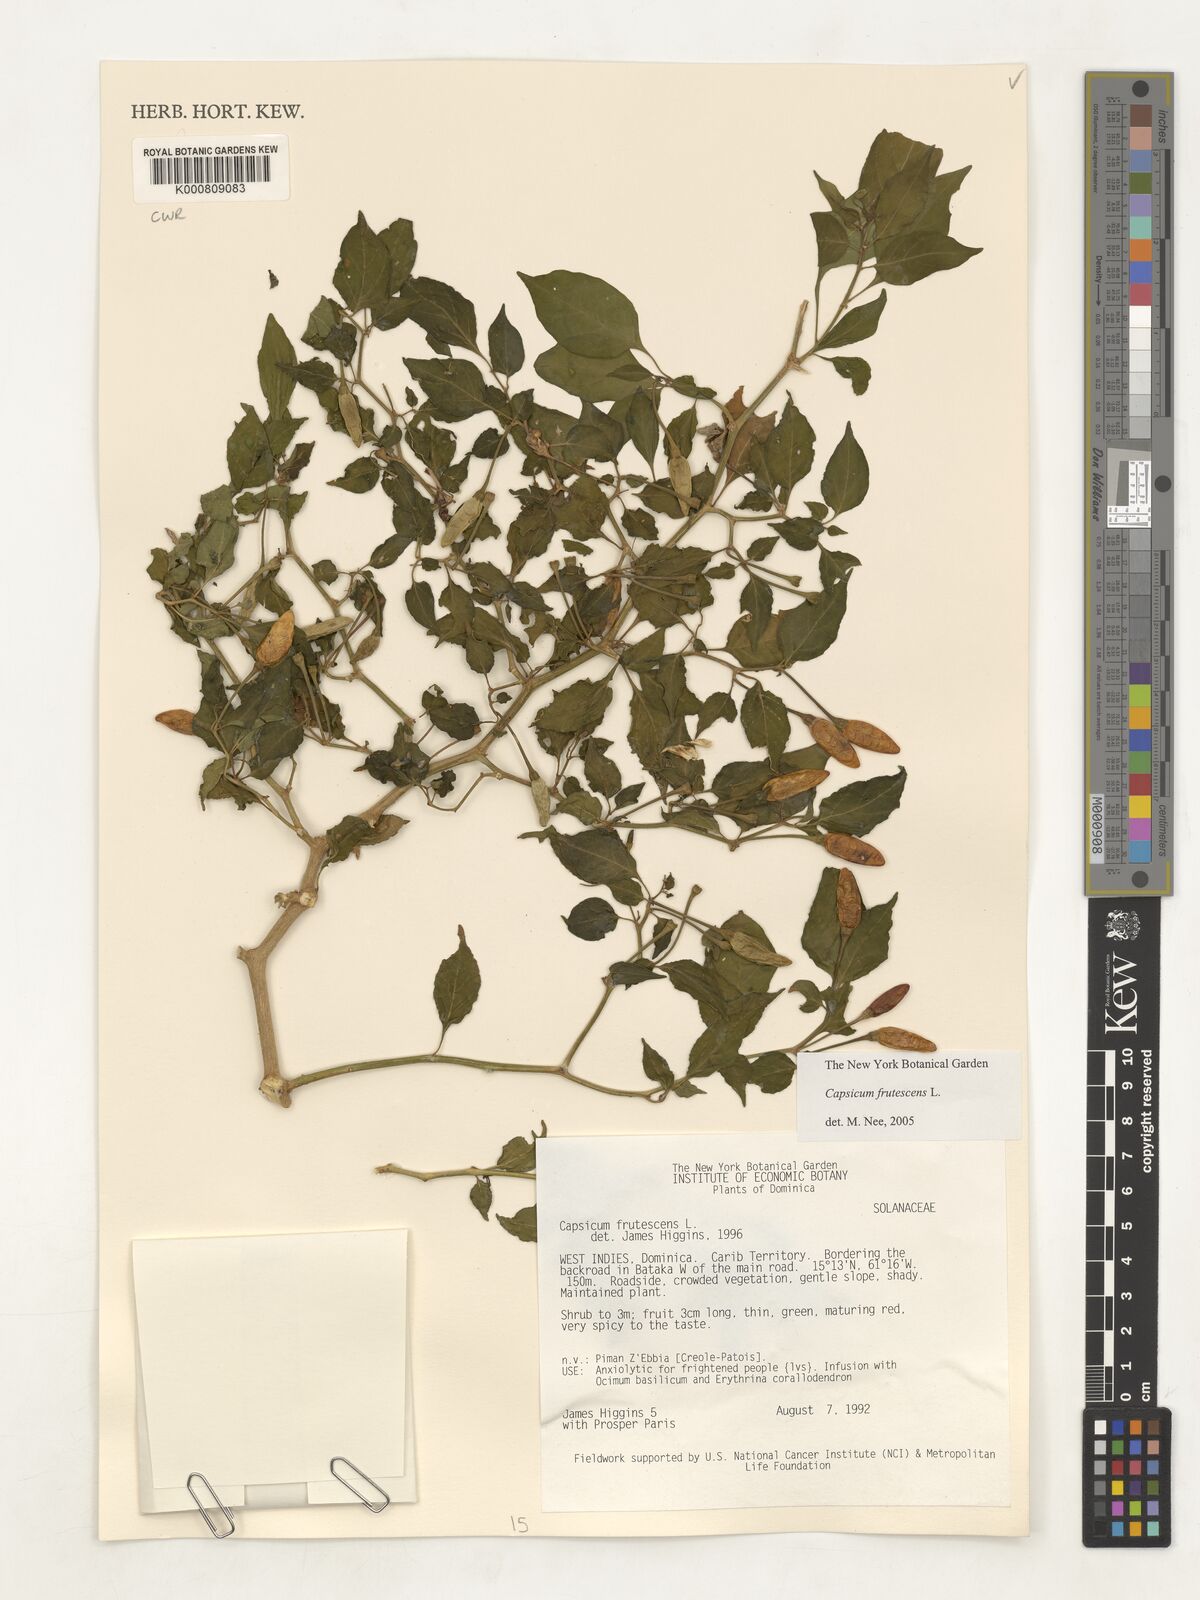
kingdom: Plantae
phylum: Tracheophyta
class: Magnoliopsida
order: Solanales
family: Solanaceae
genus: Capsicum
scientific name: Capsicum frutescens
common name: Bird pepper
